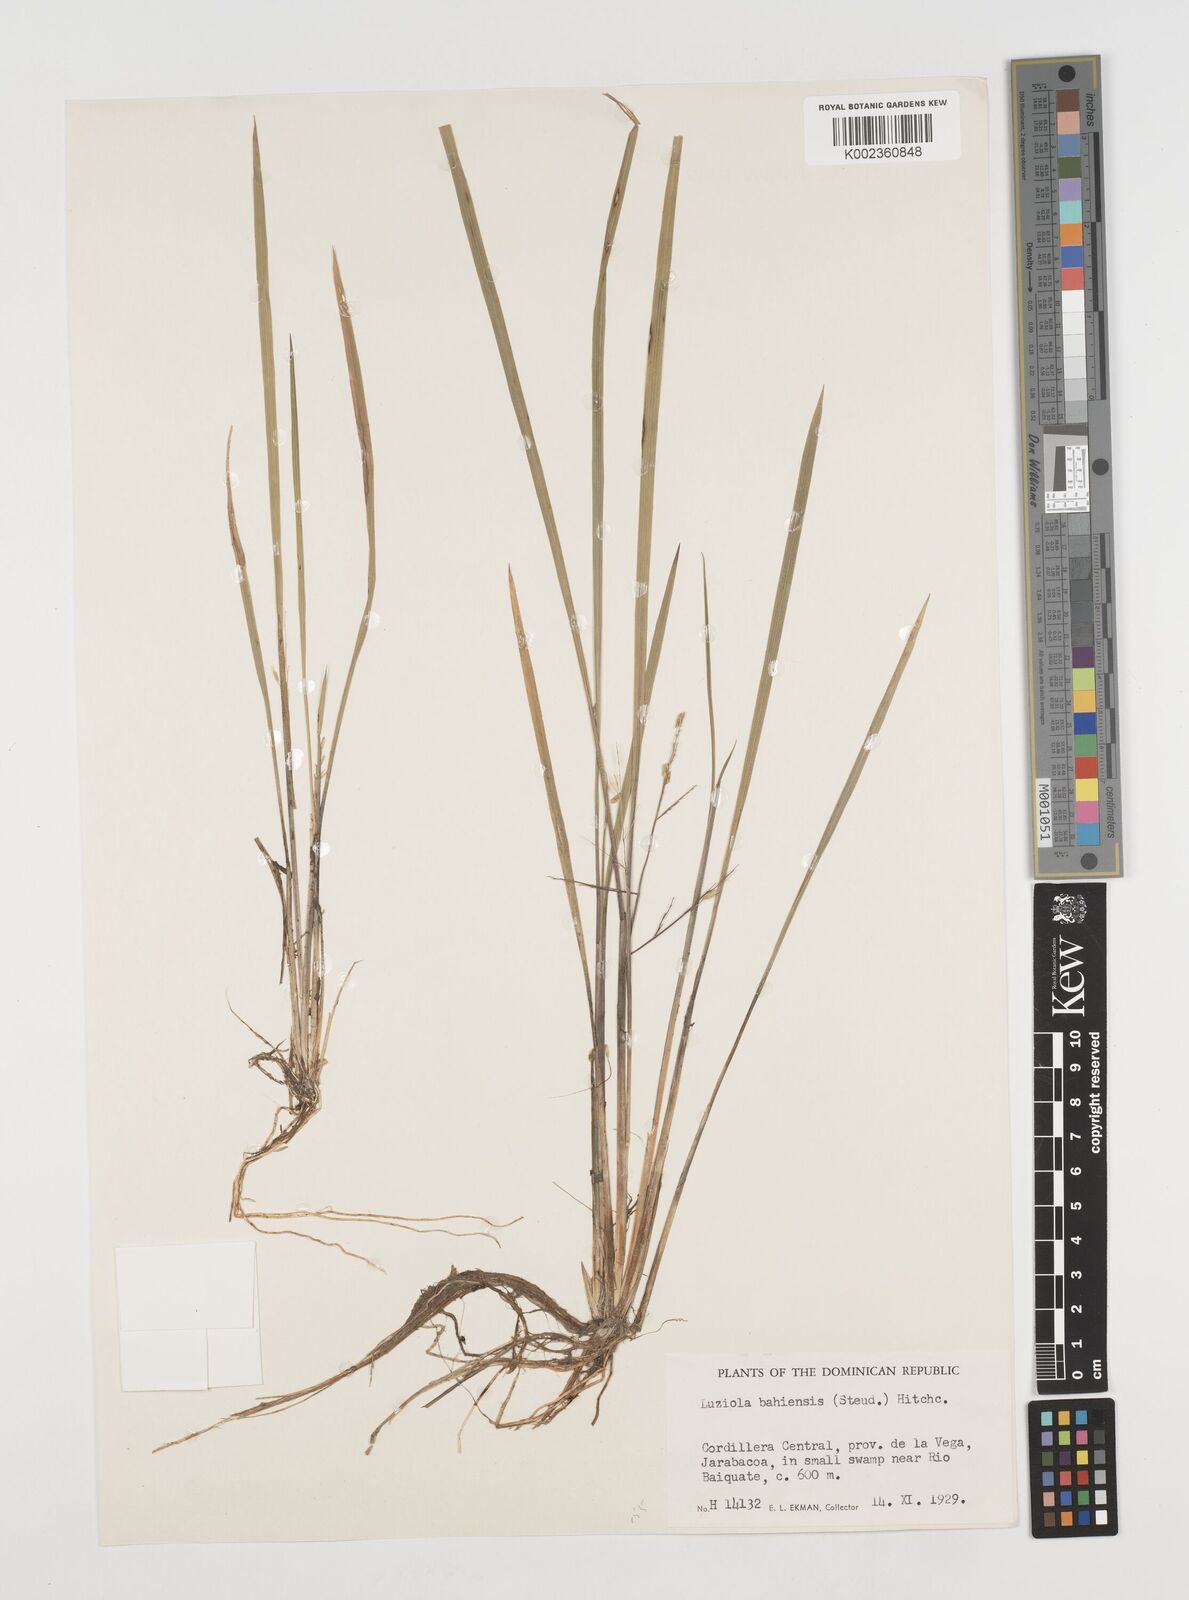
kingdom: Plantae
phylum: Tracheophyta
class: Liliopsida
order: Poales
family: Poaceae
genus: Luziola
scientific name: Luziola bahiensis
